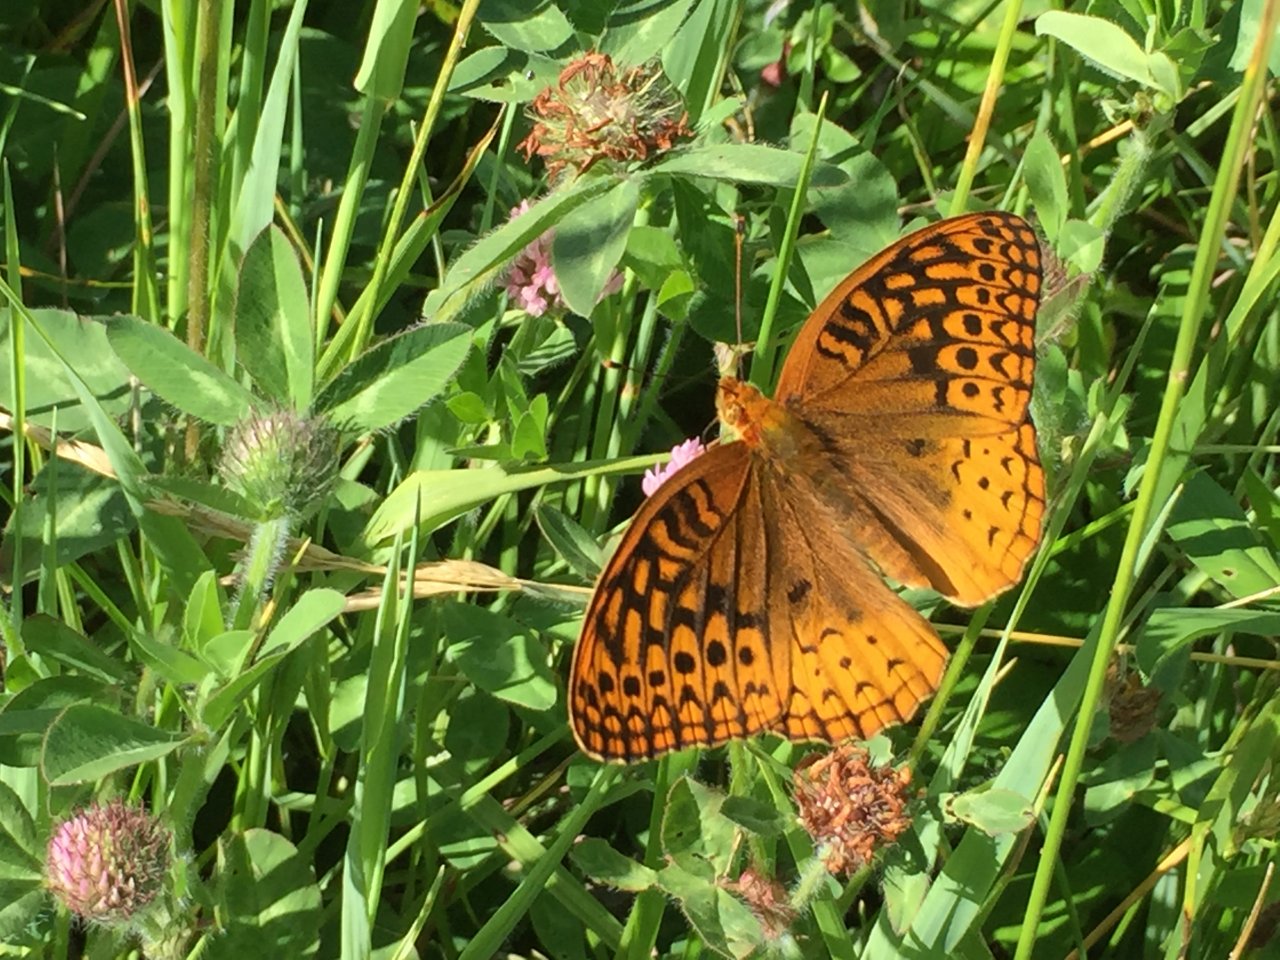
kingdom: Animalia
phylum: Arthropoda
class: Insecta
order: Lepidoptera
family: Nymphalidae
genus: Speyeria
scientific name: Speyeria cybele
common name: Great Spangled Fritillary
